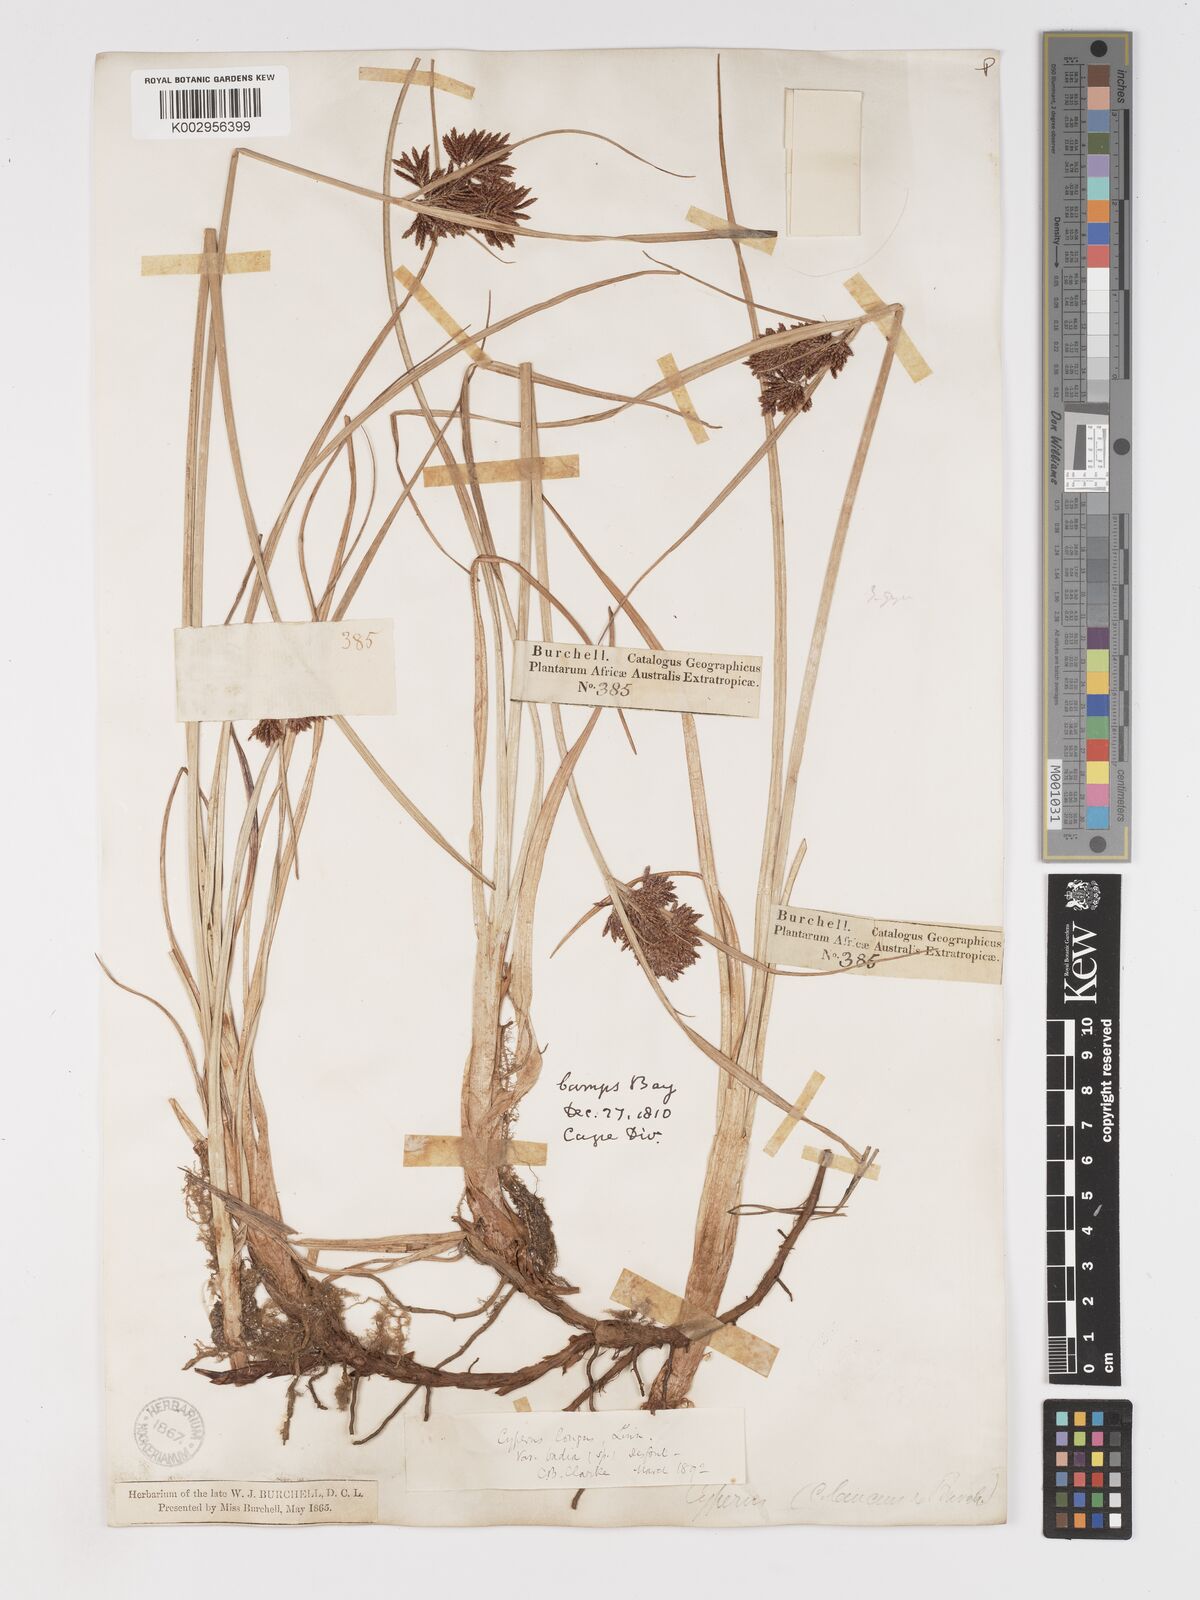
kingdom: Plantae
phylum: Tracheophyta
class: Liliopsida
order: Poales
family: Cyperaceae
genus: Cyperus
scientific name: Cyperus longus
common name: Galingale
